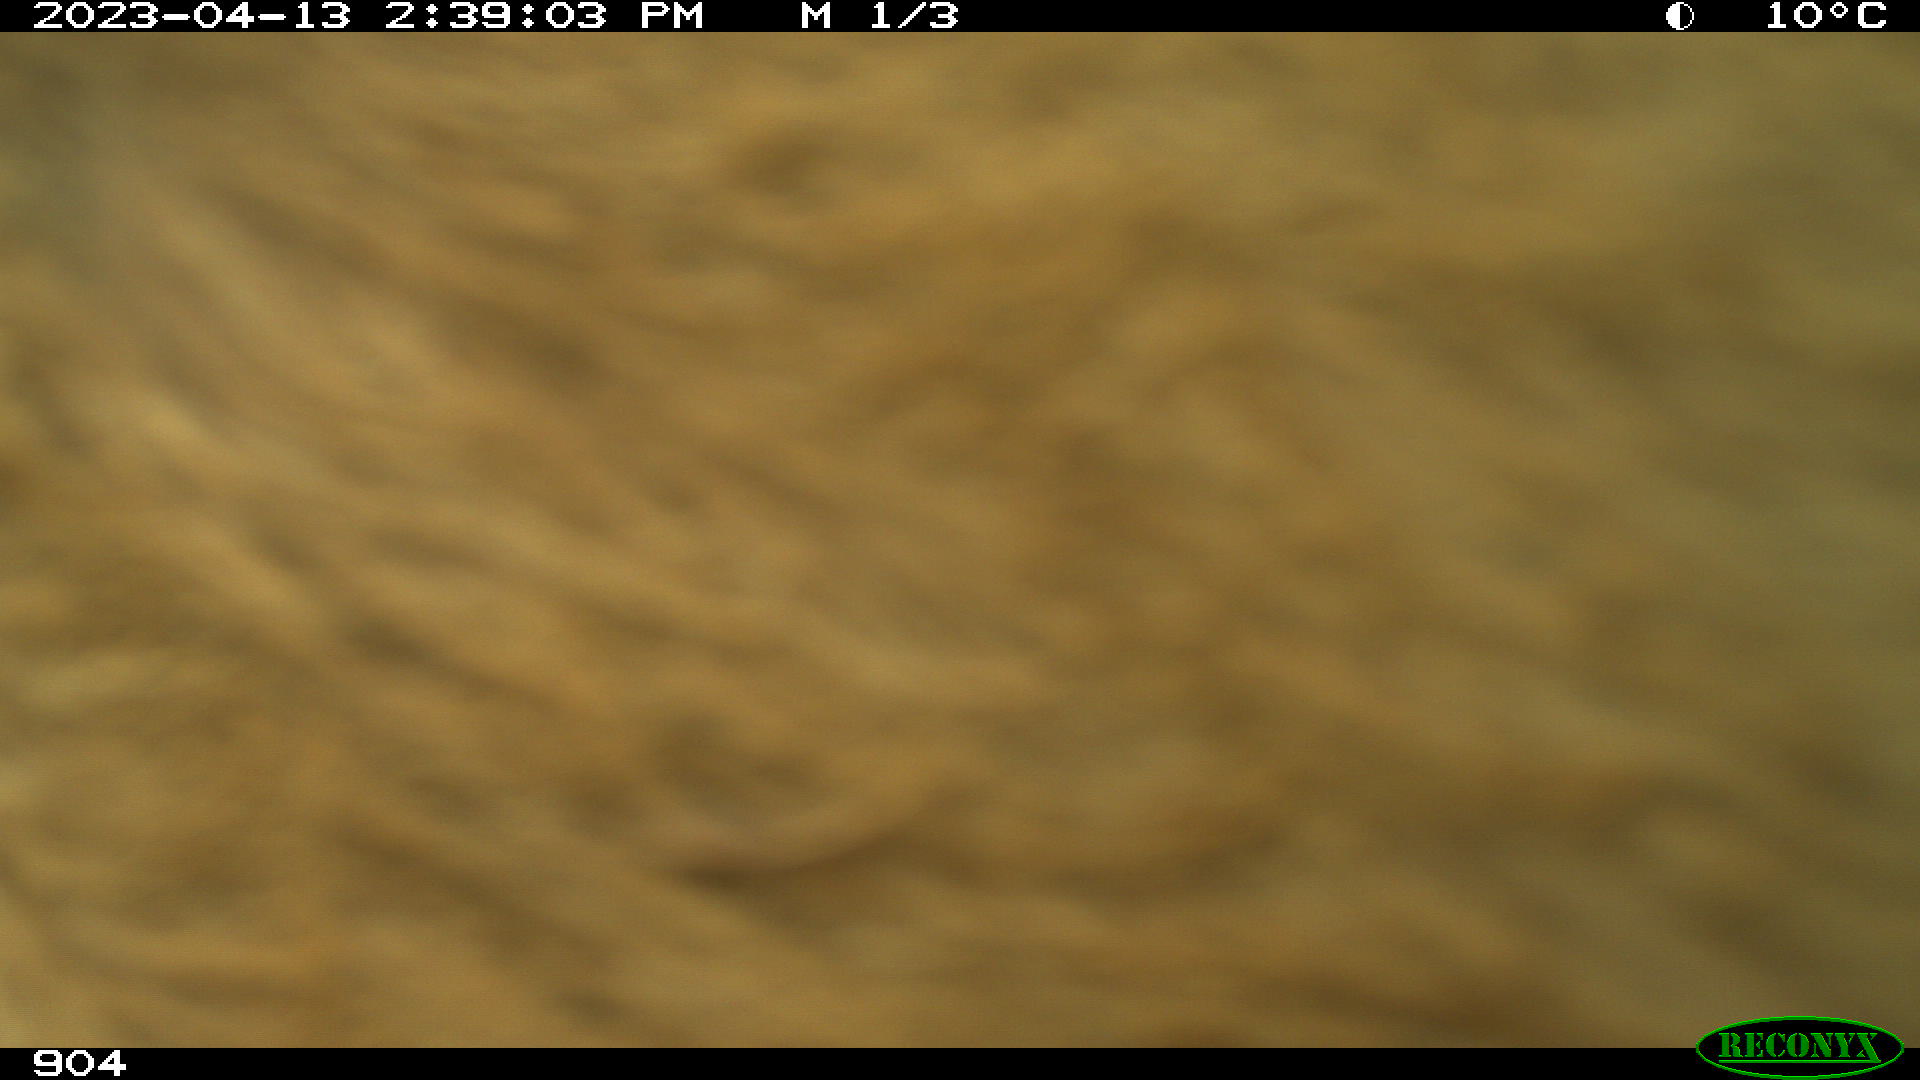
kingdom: Animalia
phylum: Chordata
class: Mammalia
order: Artiodactyla
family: Bovidae
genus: Bos
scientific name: Bos taurus
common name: Domesticated cattle
